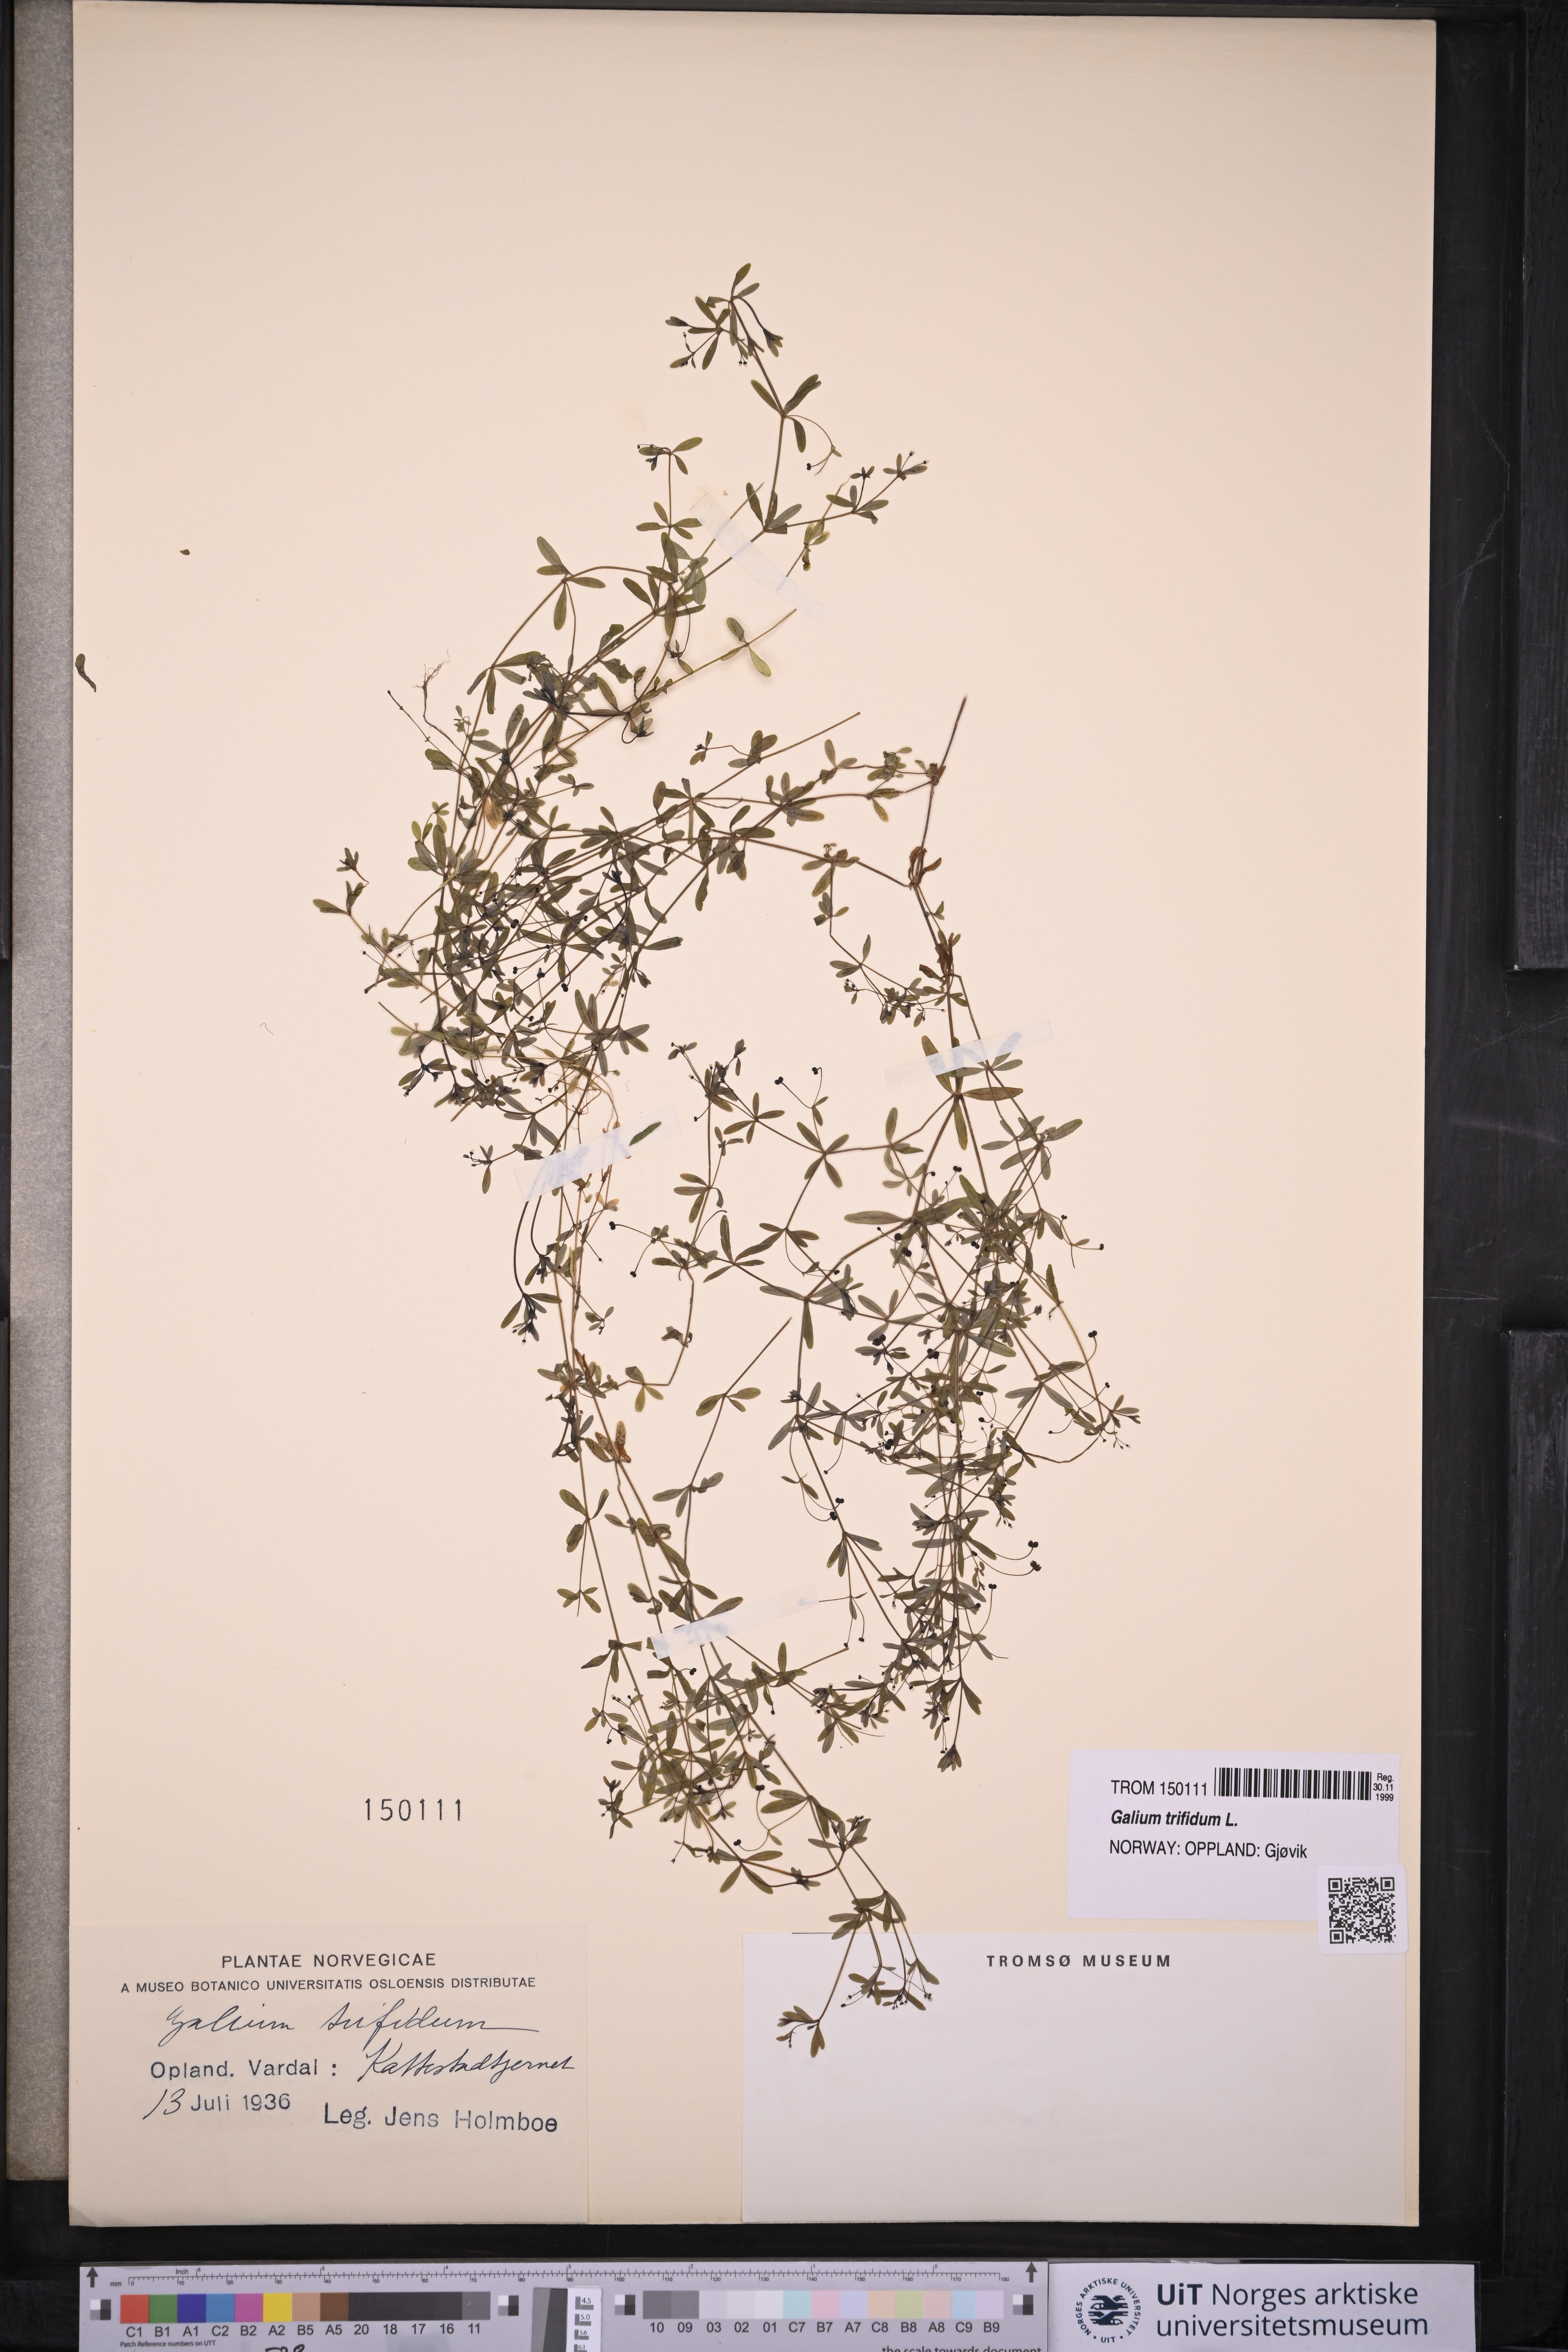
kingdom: Plantae
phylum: Tracheophyta
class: Magnoliopsida
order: Gentianales
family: Rubiaceae
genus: Galium
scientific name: Galium trifidum
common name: Small bedstraw
